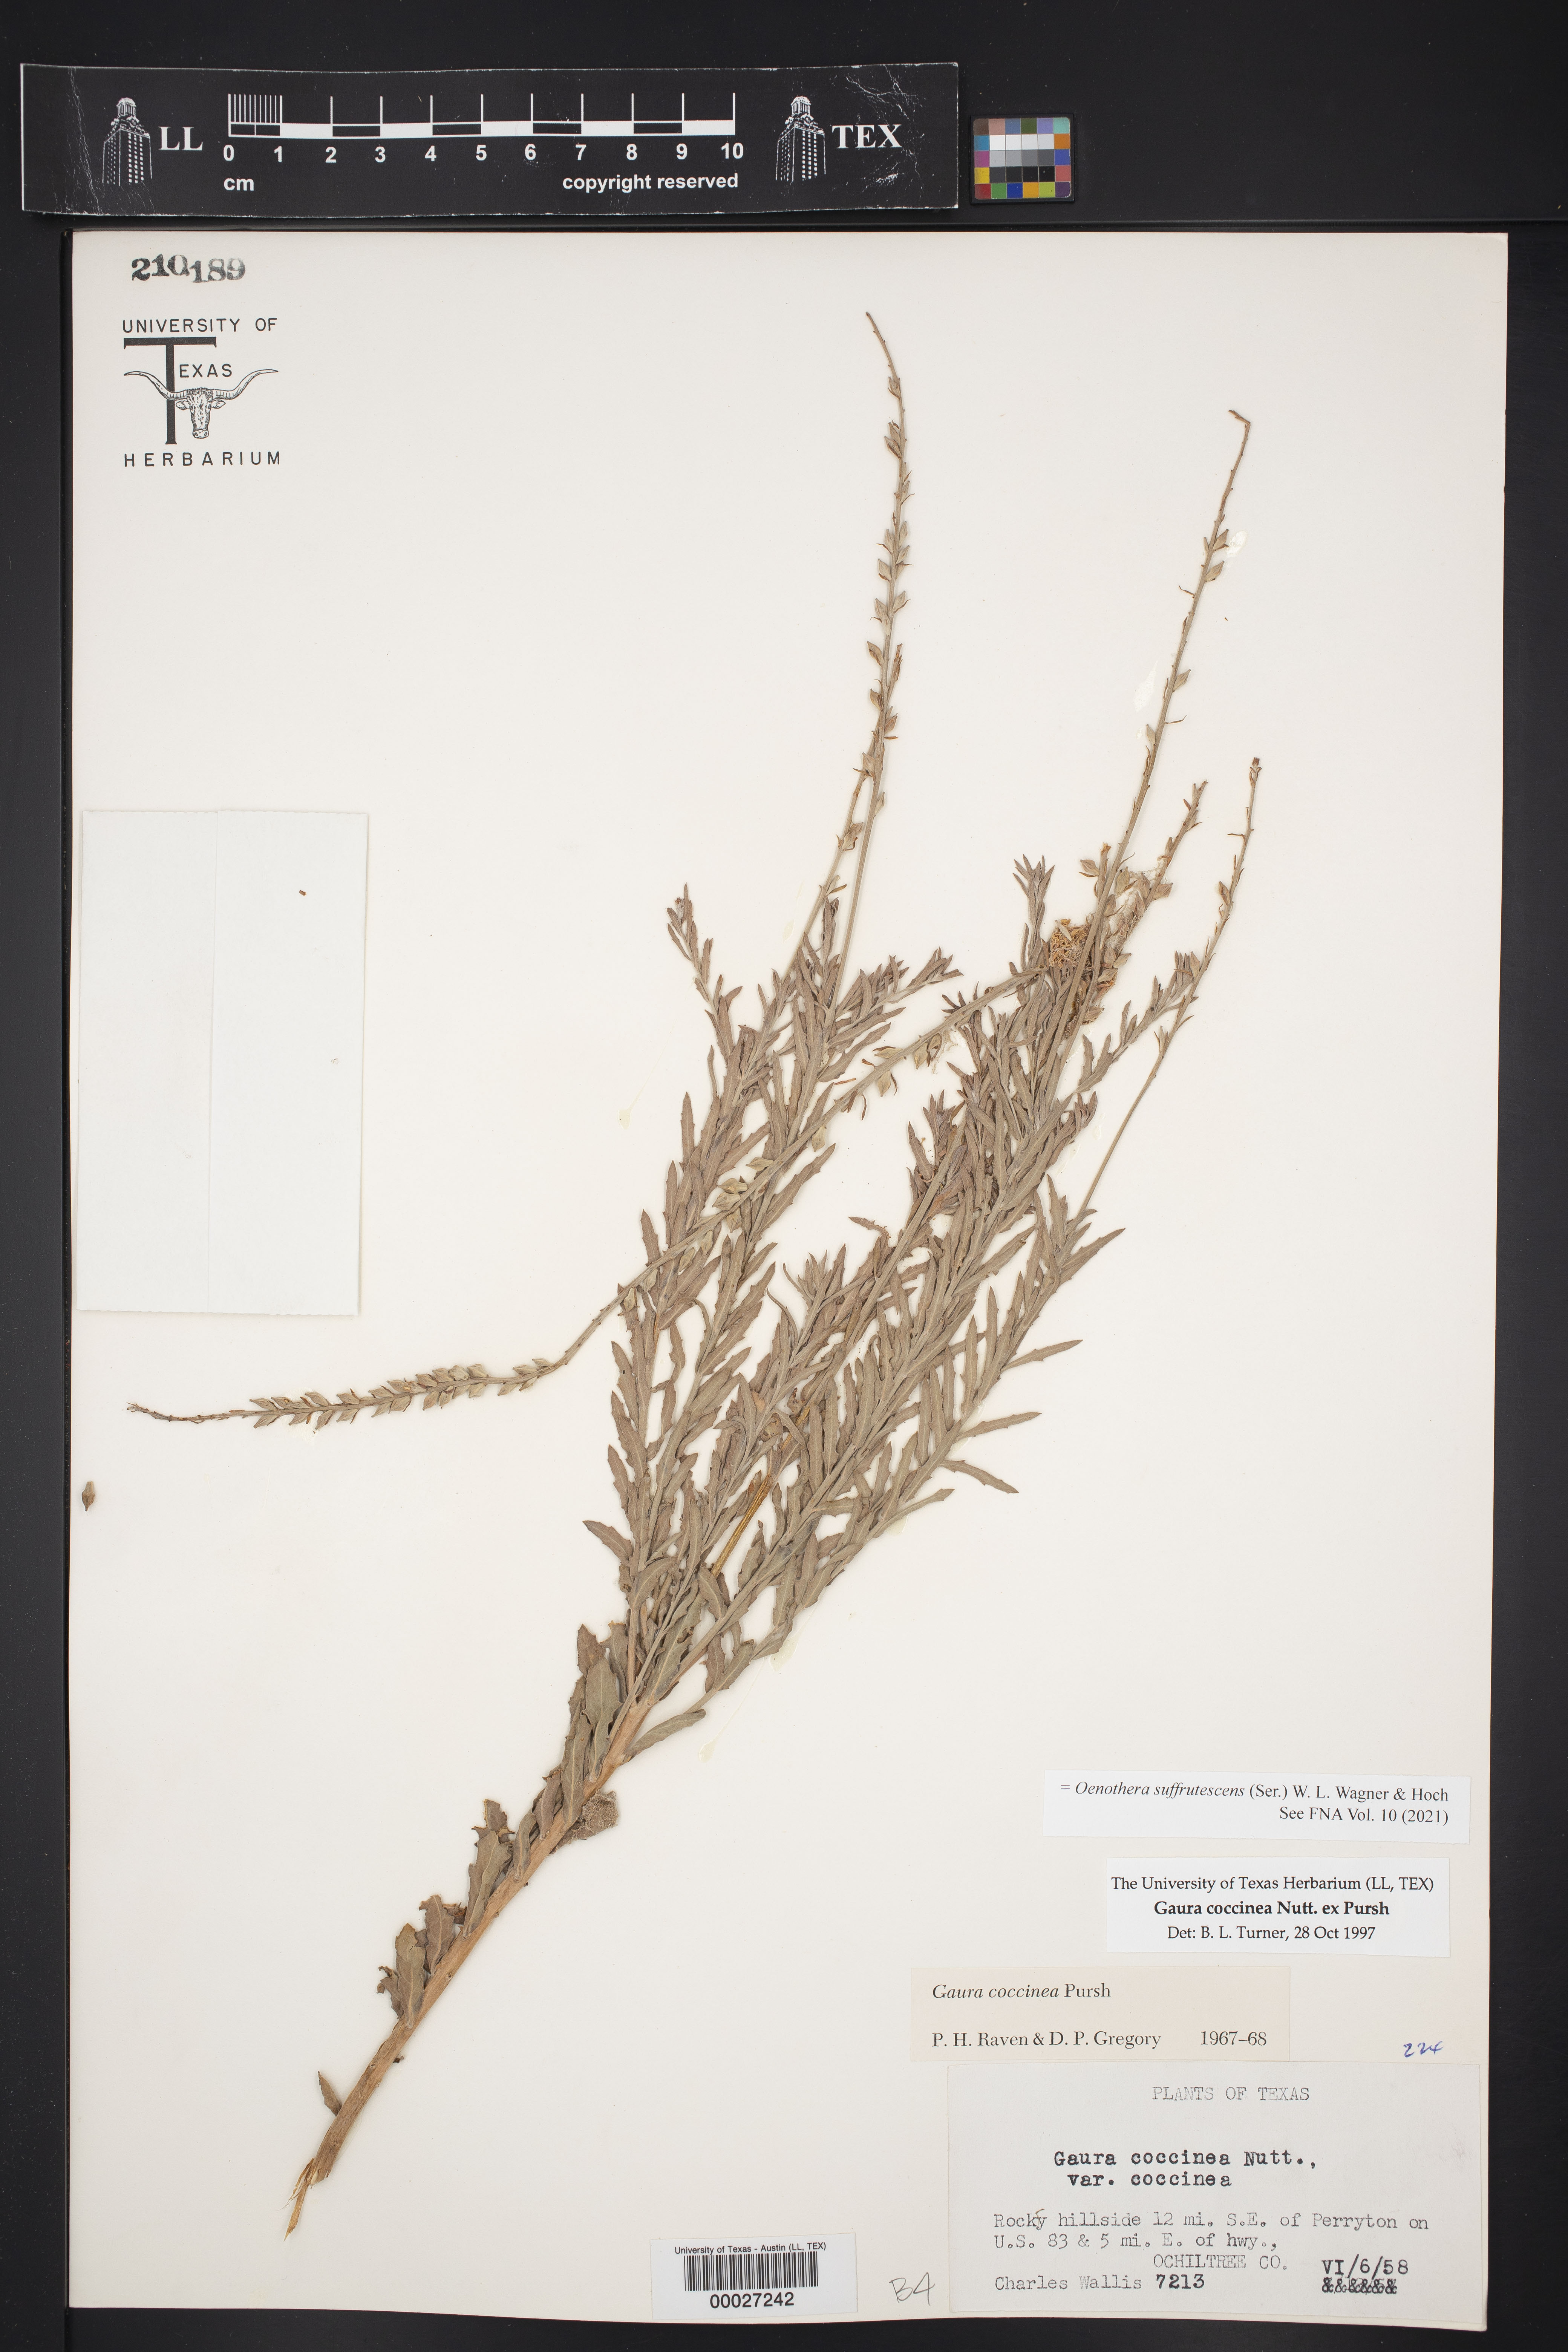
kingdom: Plantae
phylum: Tracheophyta
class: Magnoliopsida
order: Myrtales
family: Onagraceae
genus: Oenothera
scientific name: Oenothera suffrutescens
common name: Scarlet beeblossom
